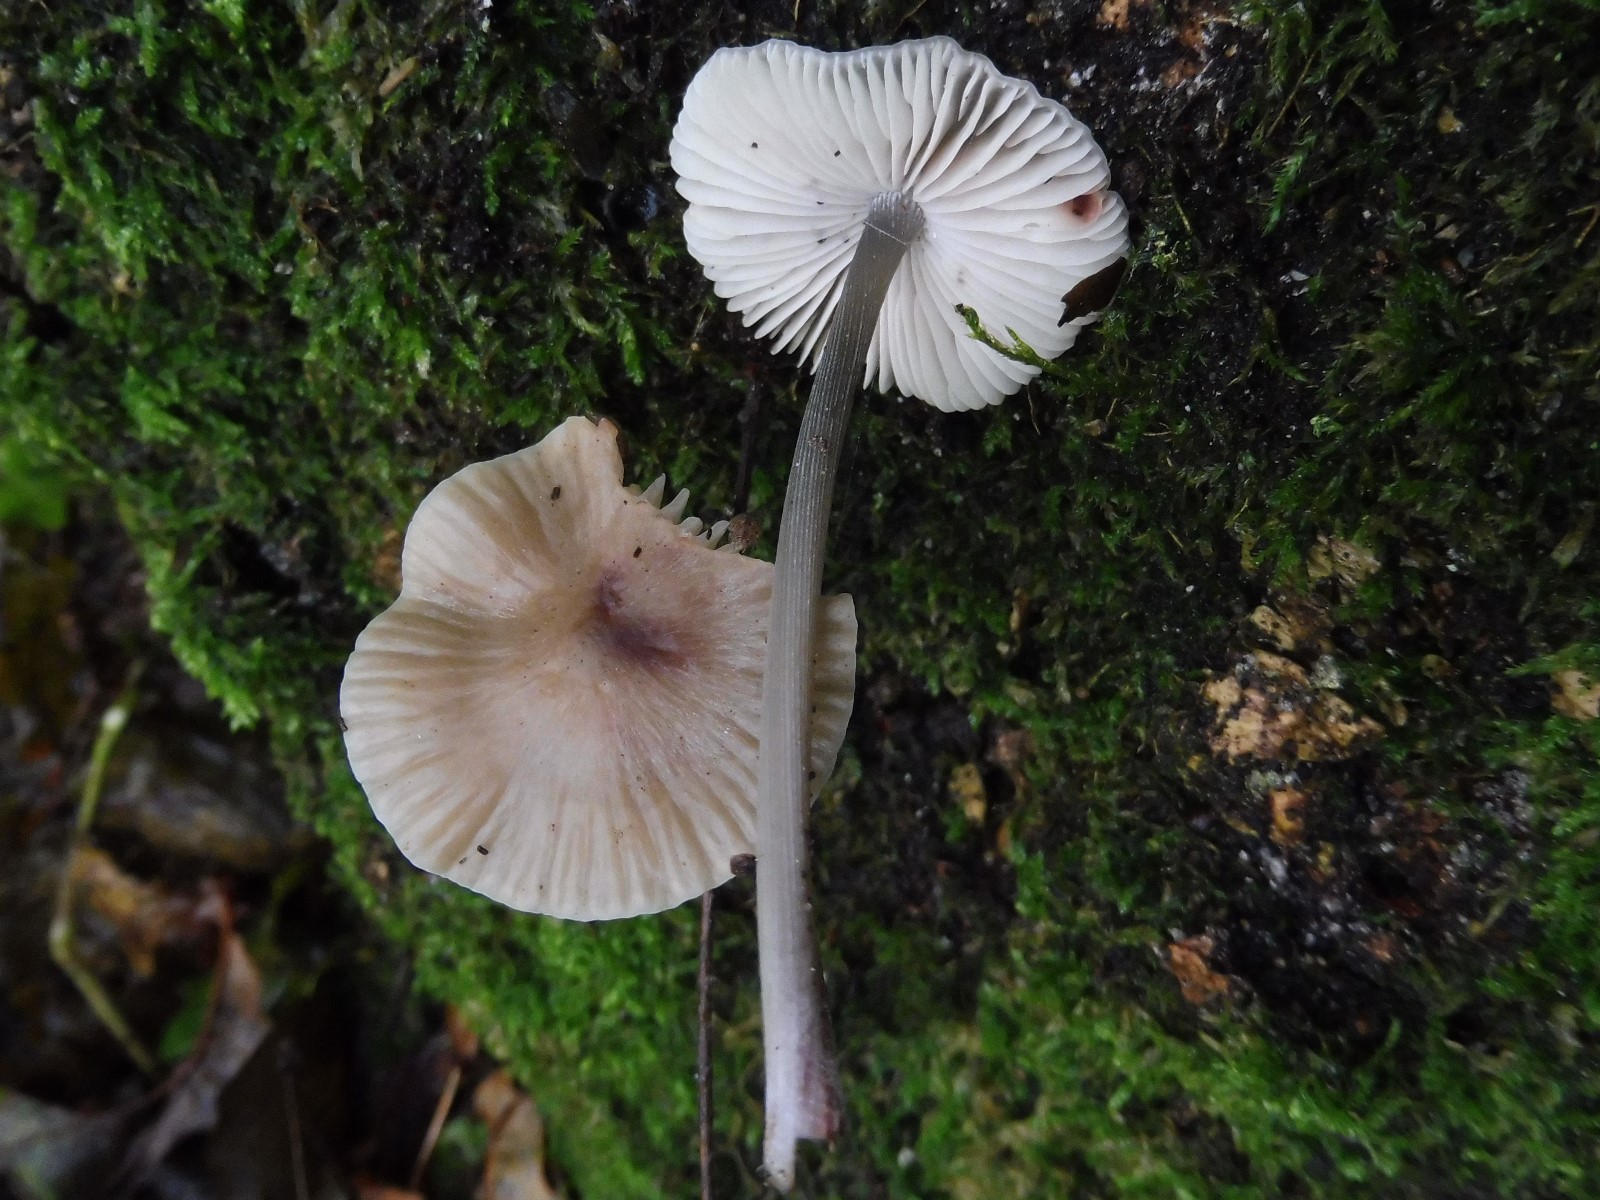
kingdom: Fungi
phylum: Basidiomycota
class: Agaricomycetes
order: Agaricales
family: Mycenaceae
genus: Mycena
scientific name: Mycena polygramma
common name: mangestribet huesvamp
